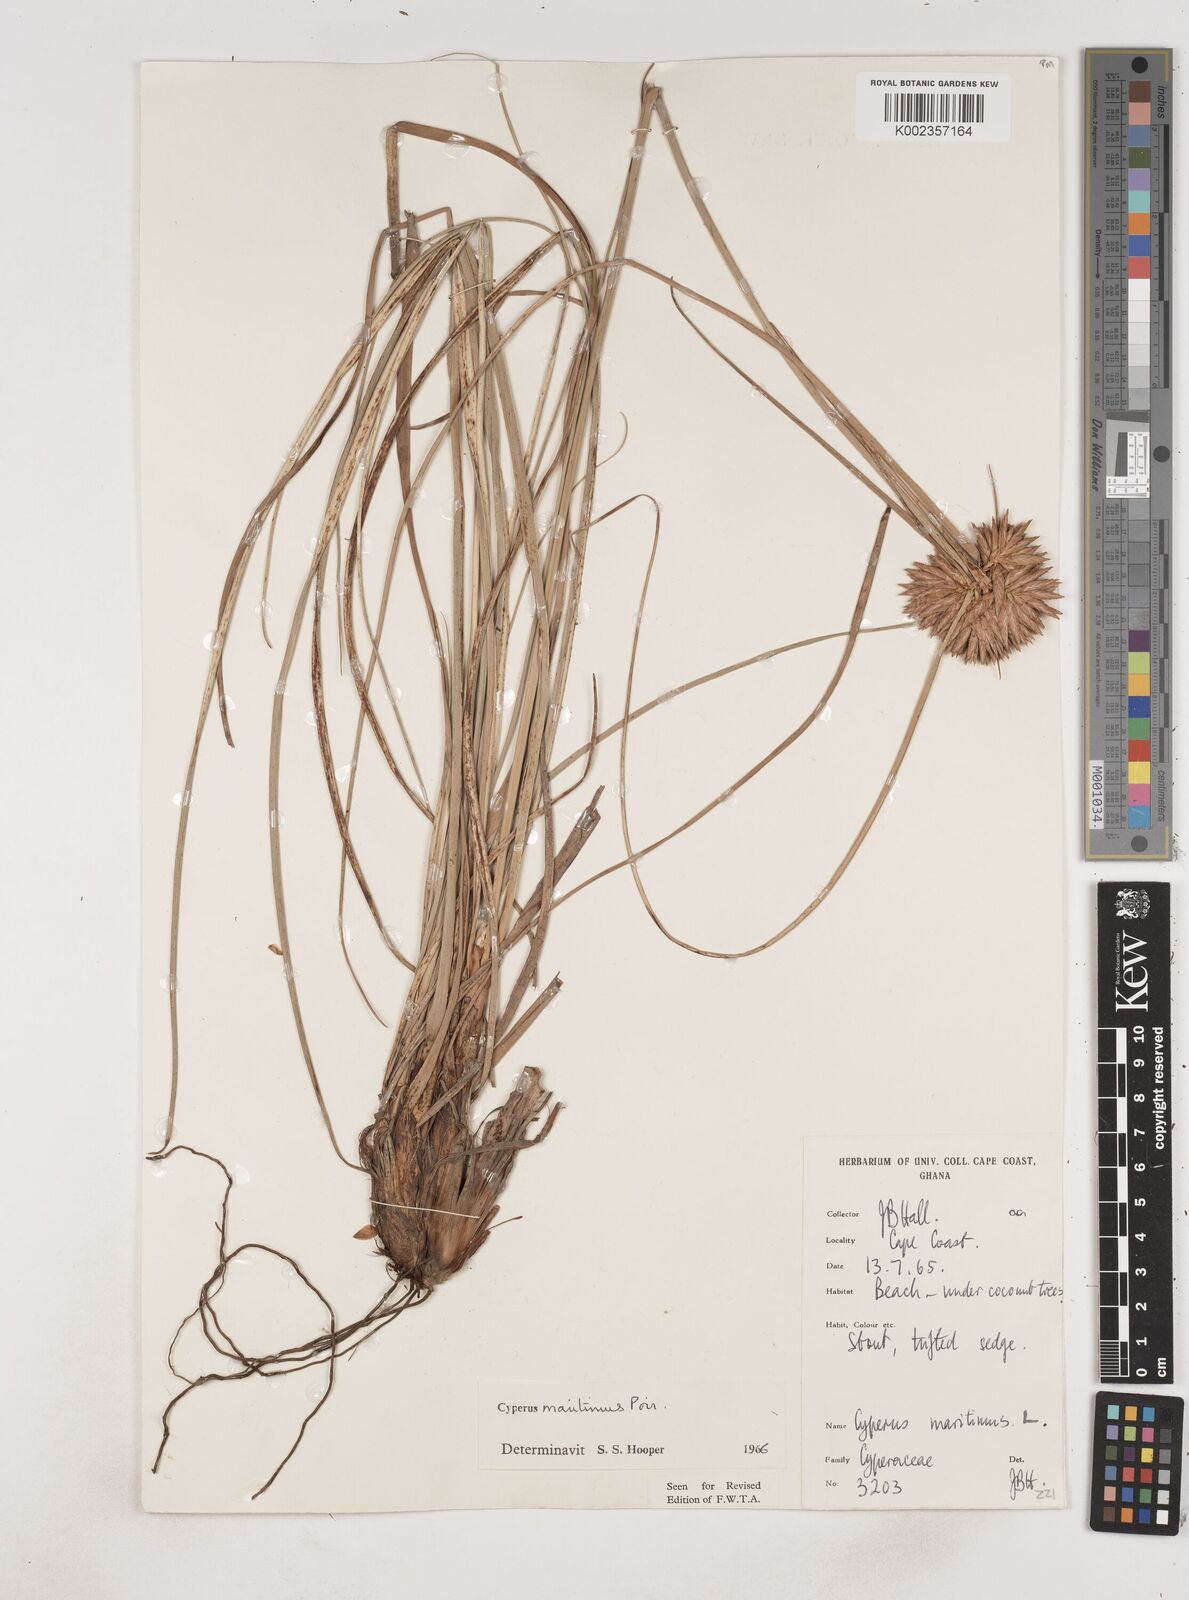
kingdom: Plantae
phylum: Tracheophyta
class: Liliopsida
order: Poales
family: Cyperaceae
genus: Cyperus
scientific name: Cyperus crassipes
